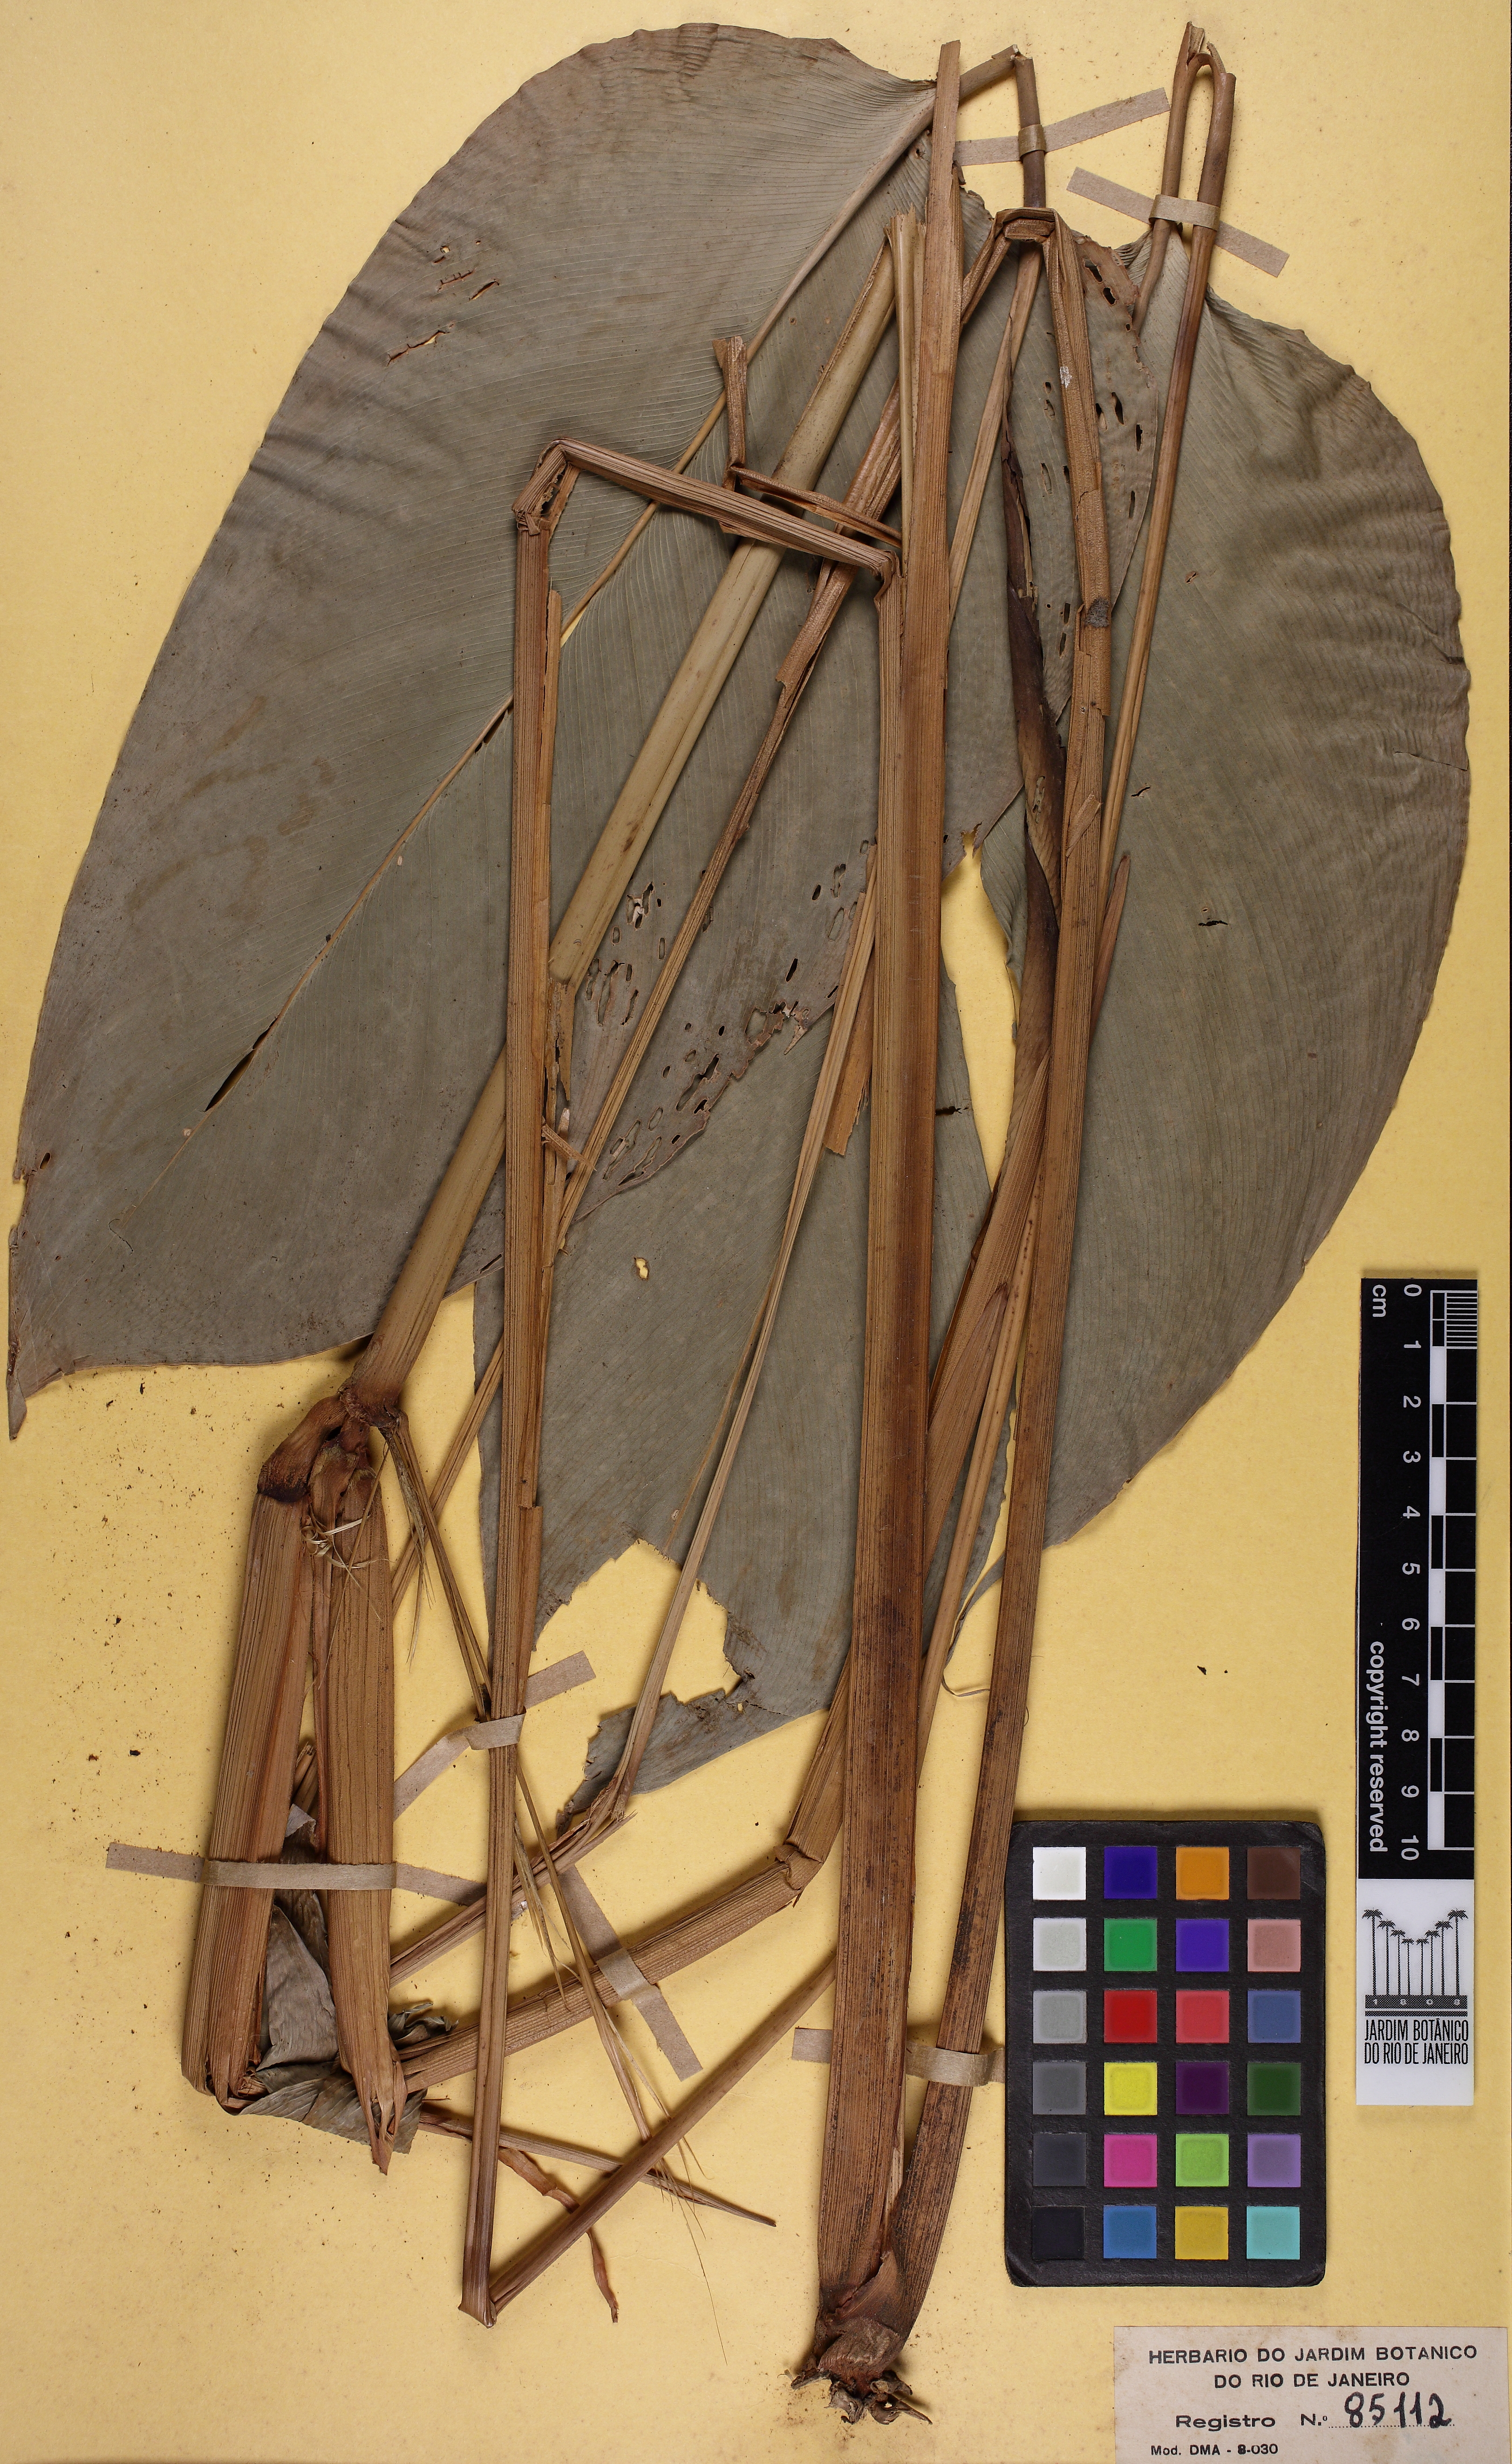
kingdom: Plantae
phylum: Tracheophyta
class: Liliopsida
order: Zingiberales
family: Marantaceae
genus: Ischnosiphon
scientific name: Ischnosiphon ovatus
